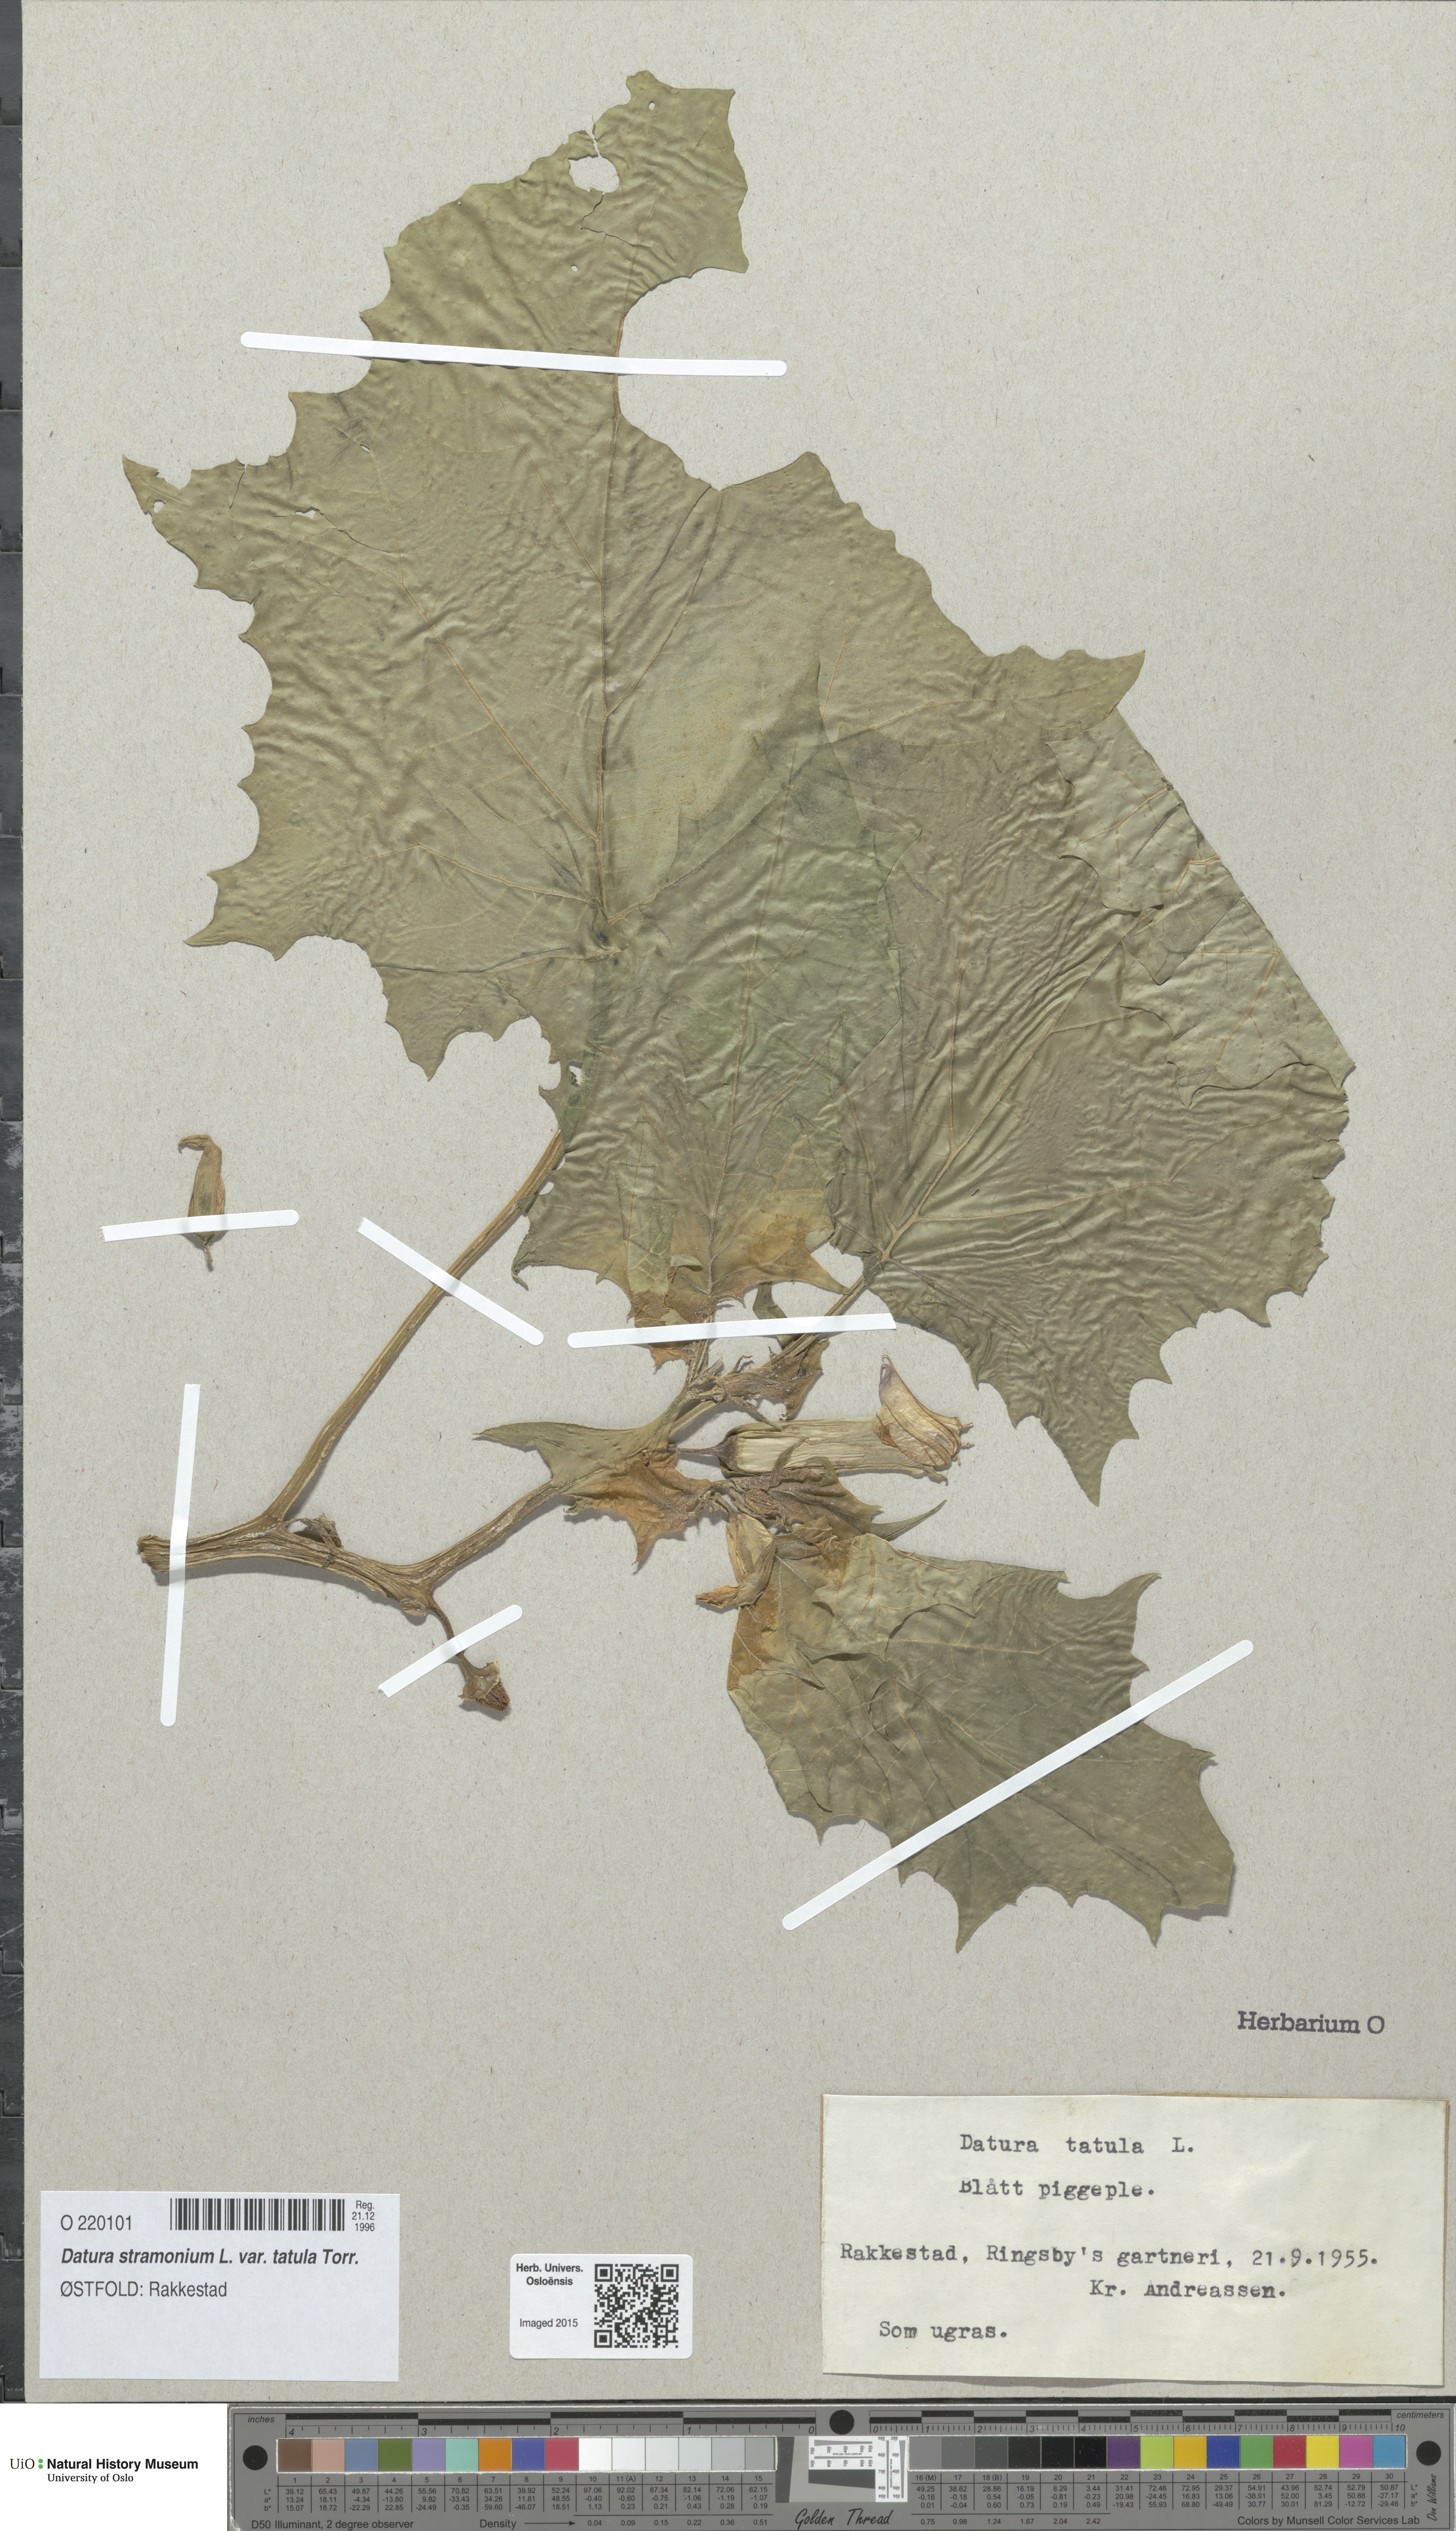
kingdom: Plantae
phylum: Tracheophyta
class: Magnoliopsida
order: Solanales
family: Solanaceae
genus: Datura
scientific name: Datura stramonium
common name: Thorn-apple
